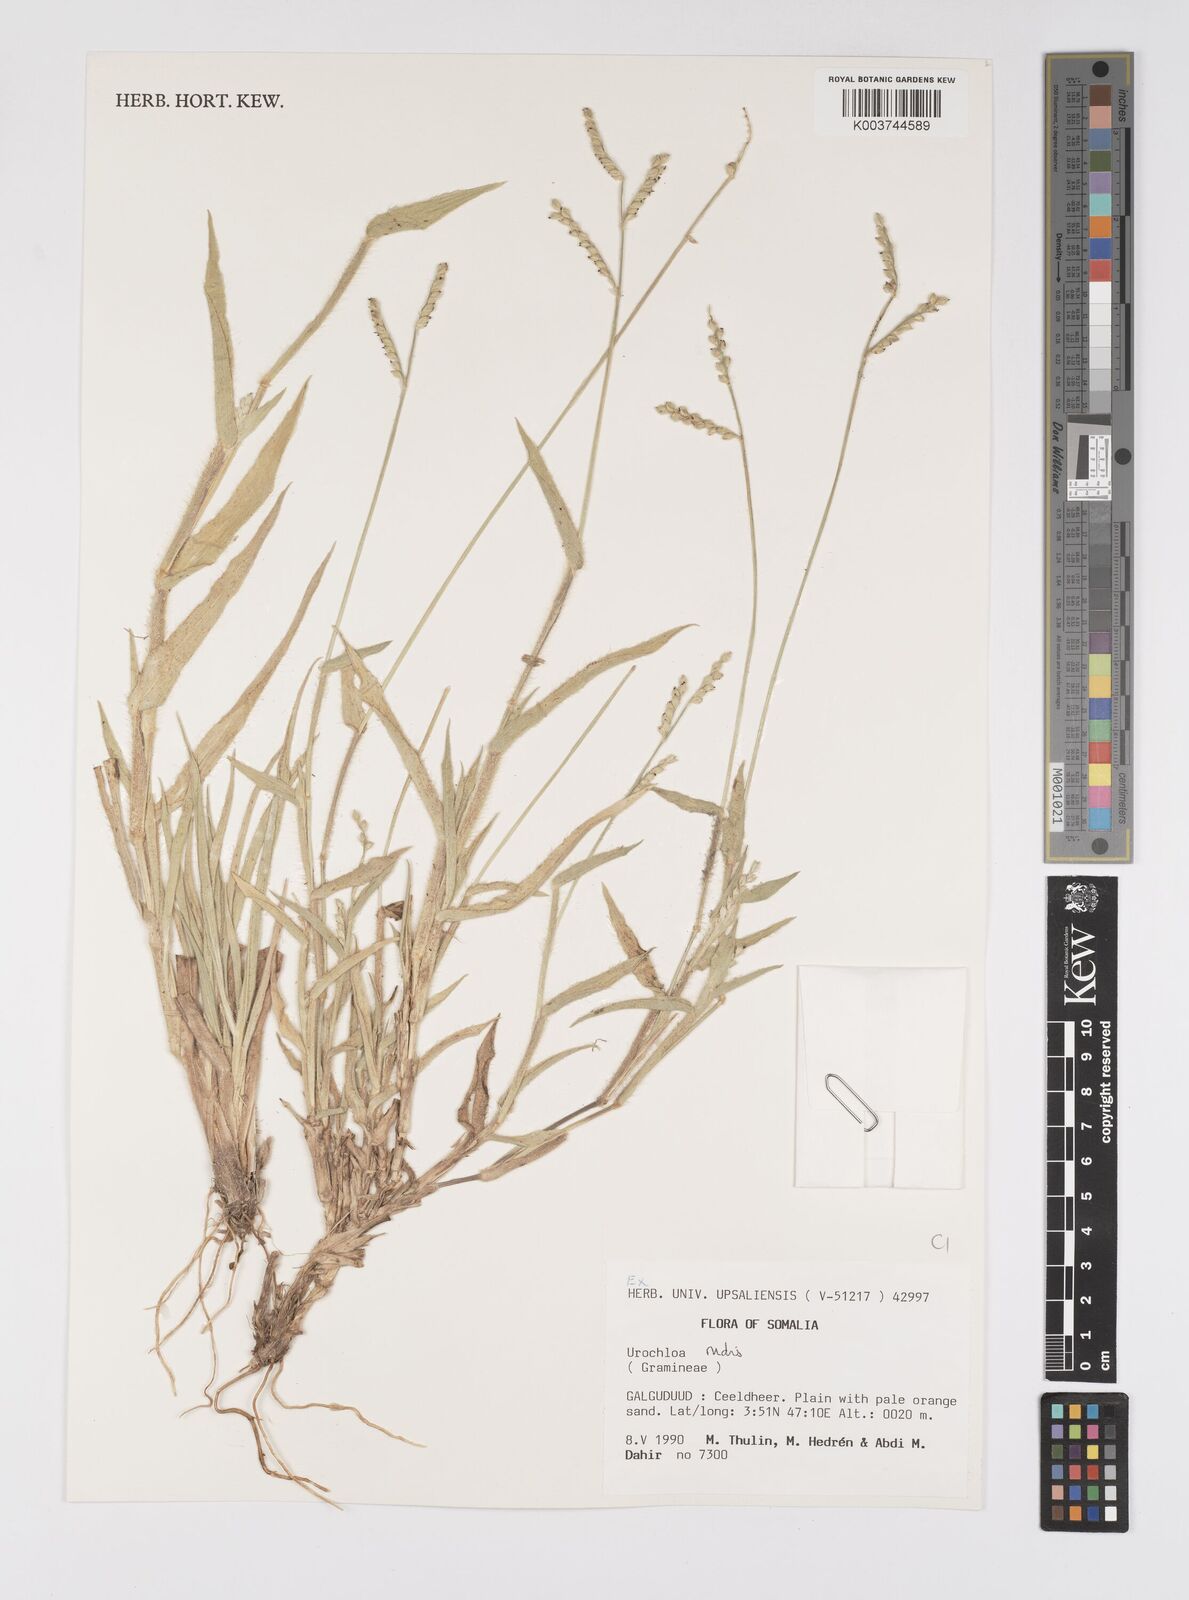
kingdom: Plantae
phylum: Tracheophyta
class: Liliopsida
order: Poales
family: Poaceae
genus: Urochloa
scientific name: Urochloa rudis
